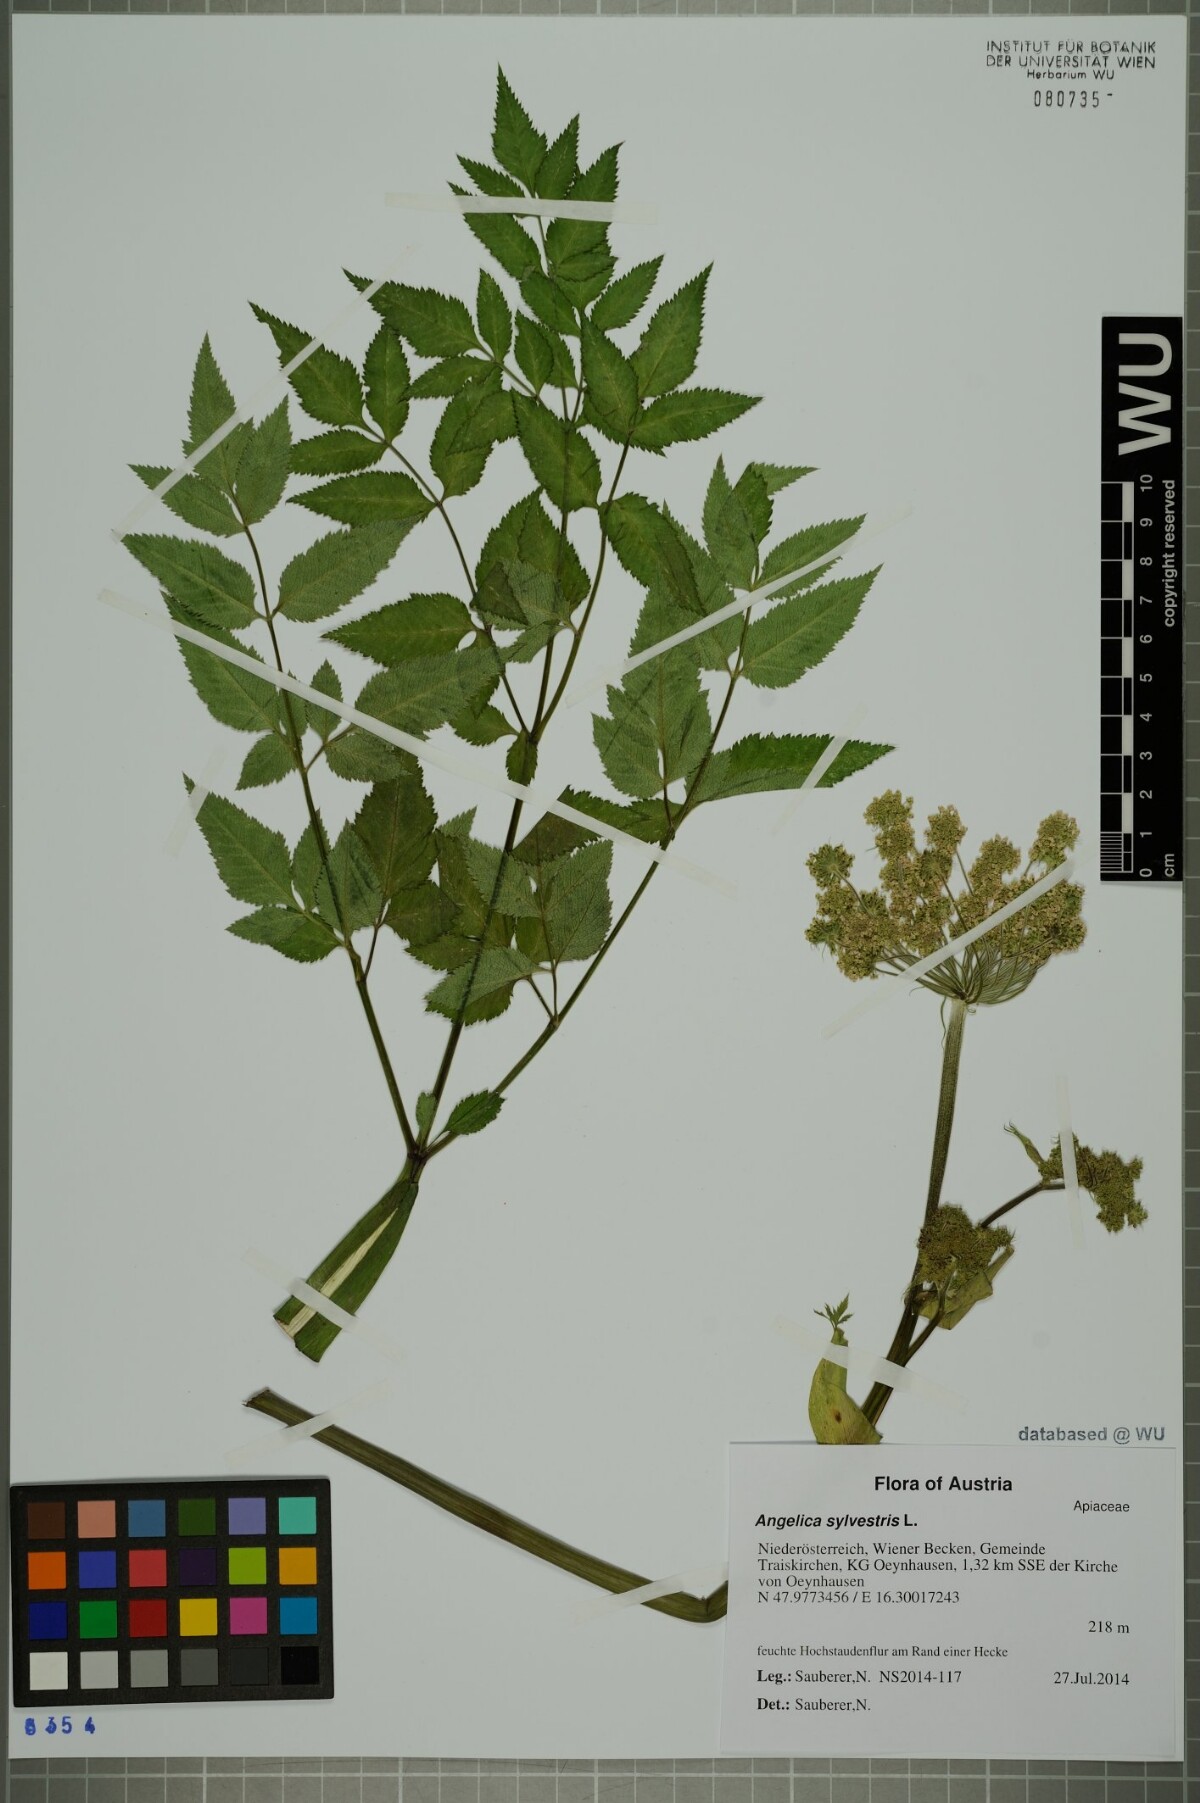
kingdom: Plantae
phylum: Tracheophyta
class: Magnoliopsida
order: Apiales
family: Apiaceae
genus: Angelica
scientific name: Angelica sylvestris
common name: Wild angelica
